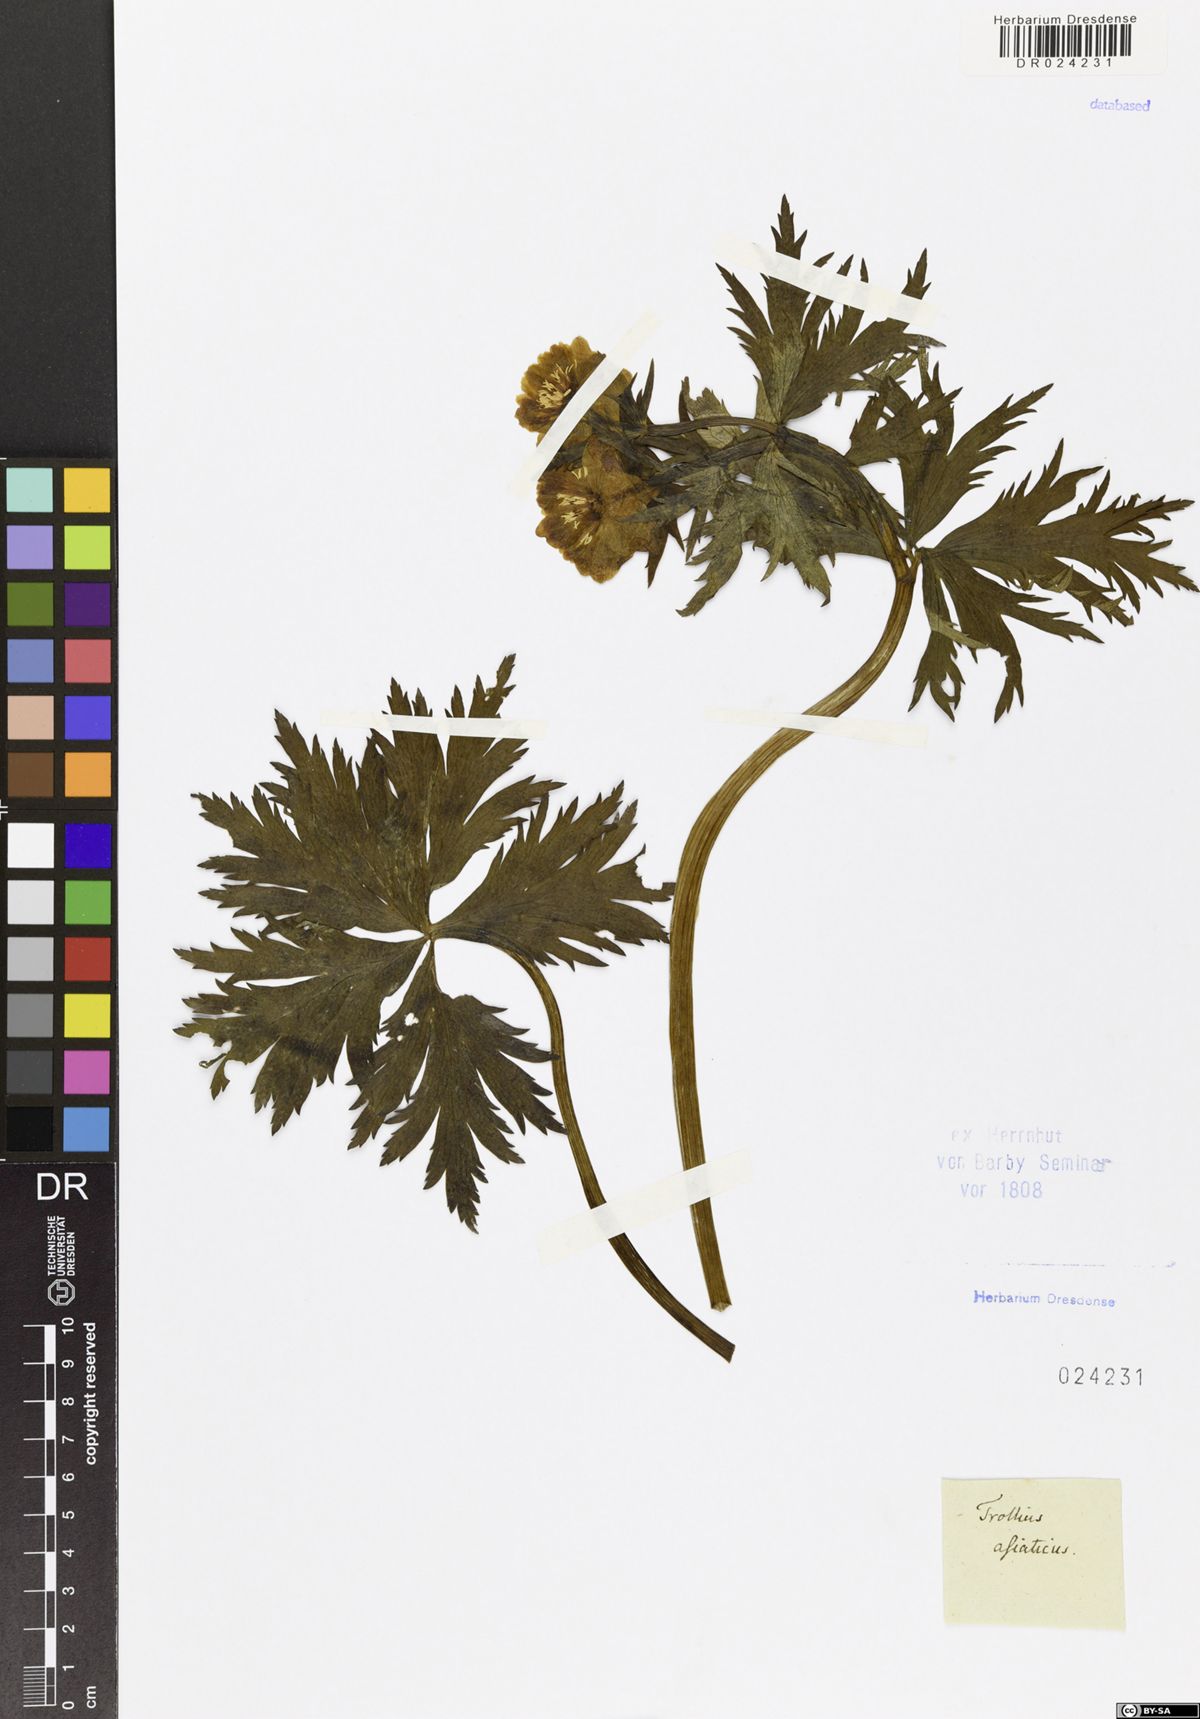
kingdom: Plantae
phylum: Tracheophyta
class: Magnoliopsida
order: Ranunculales
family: Ranunculaceae
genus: Trollius
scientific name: Trollius asiaticus
